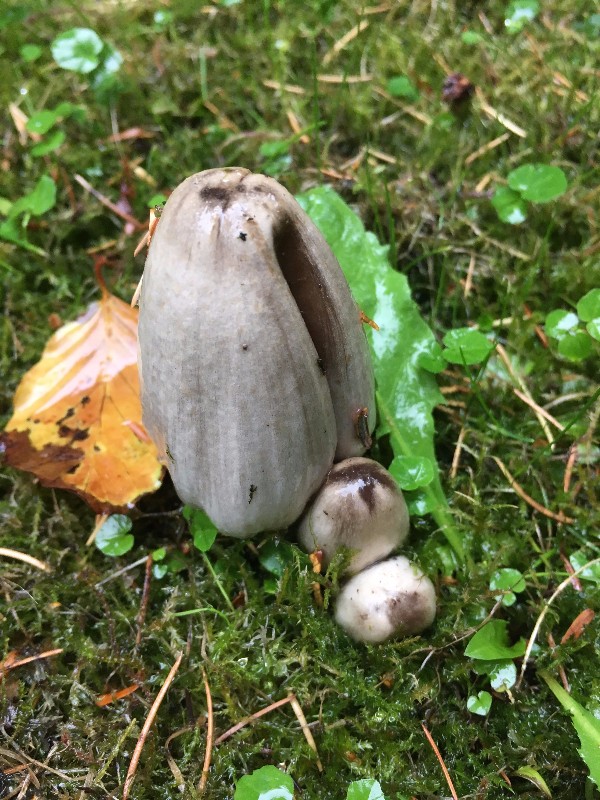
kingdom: Fungi
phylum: Basidiomycota
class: Agaricomycetes
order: Agaricales
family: Psathyrellaceae
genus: Coprinopsis
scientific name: Coprinopsis atramentaria
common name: almindelig blækhat
